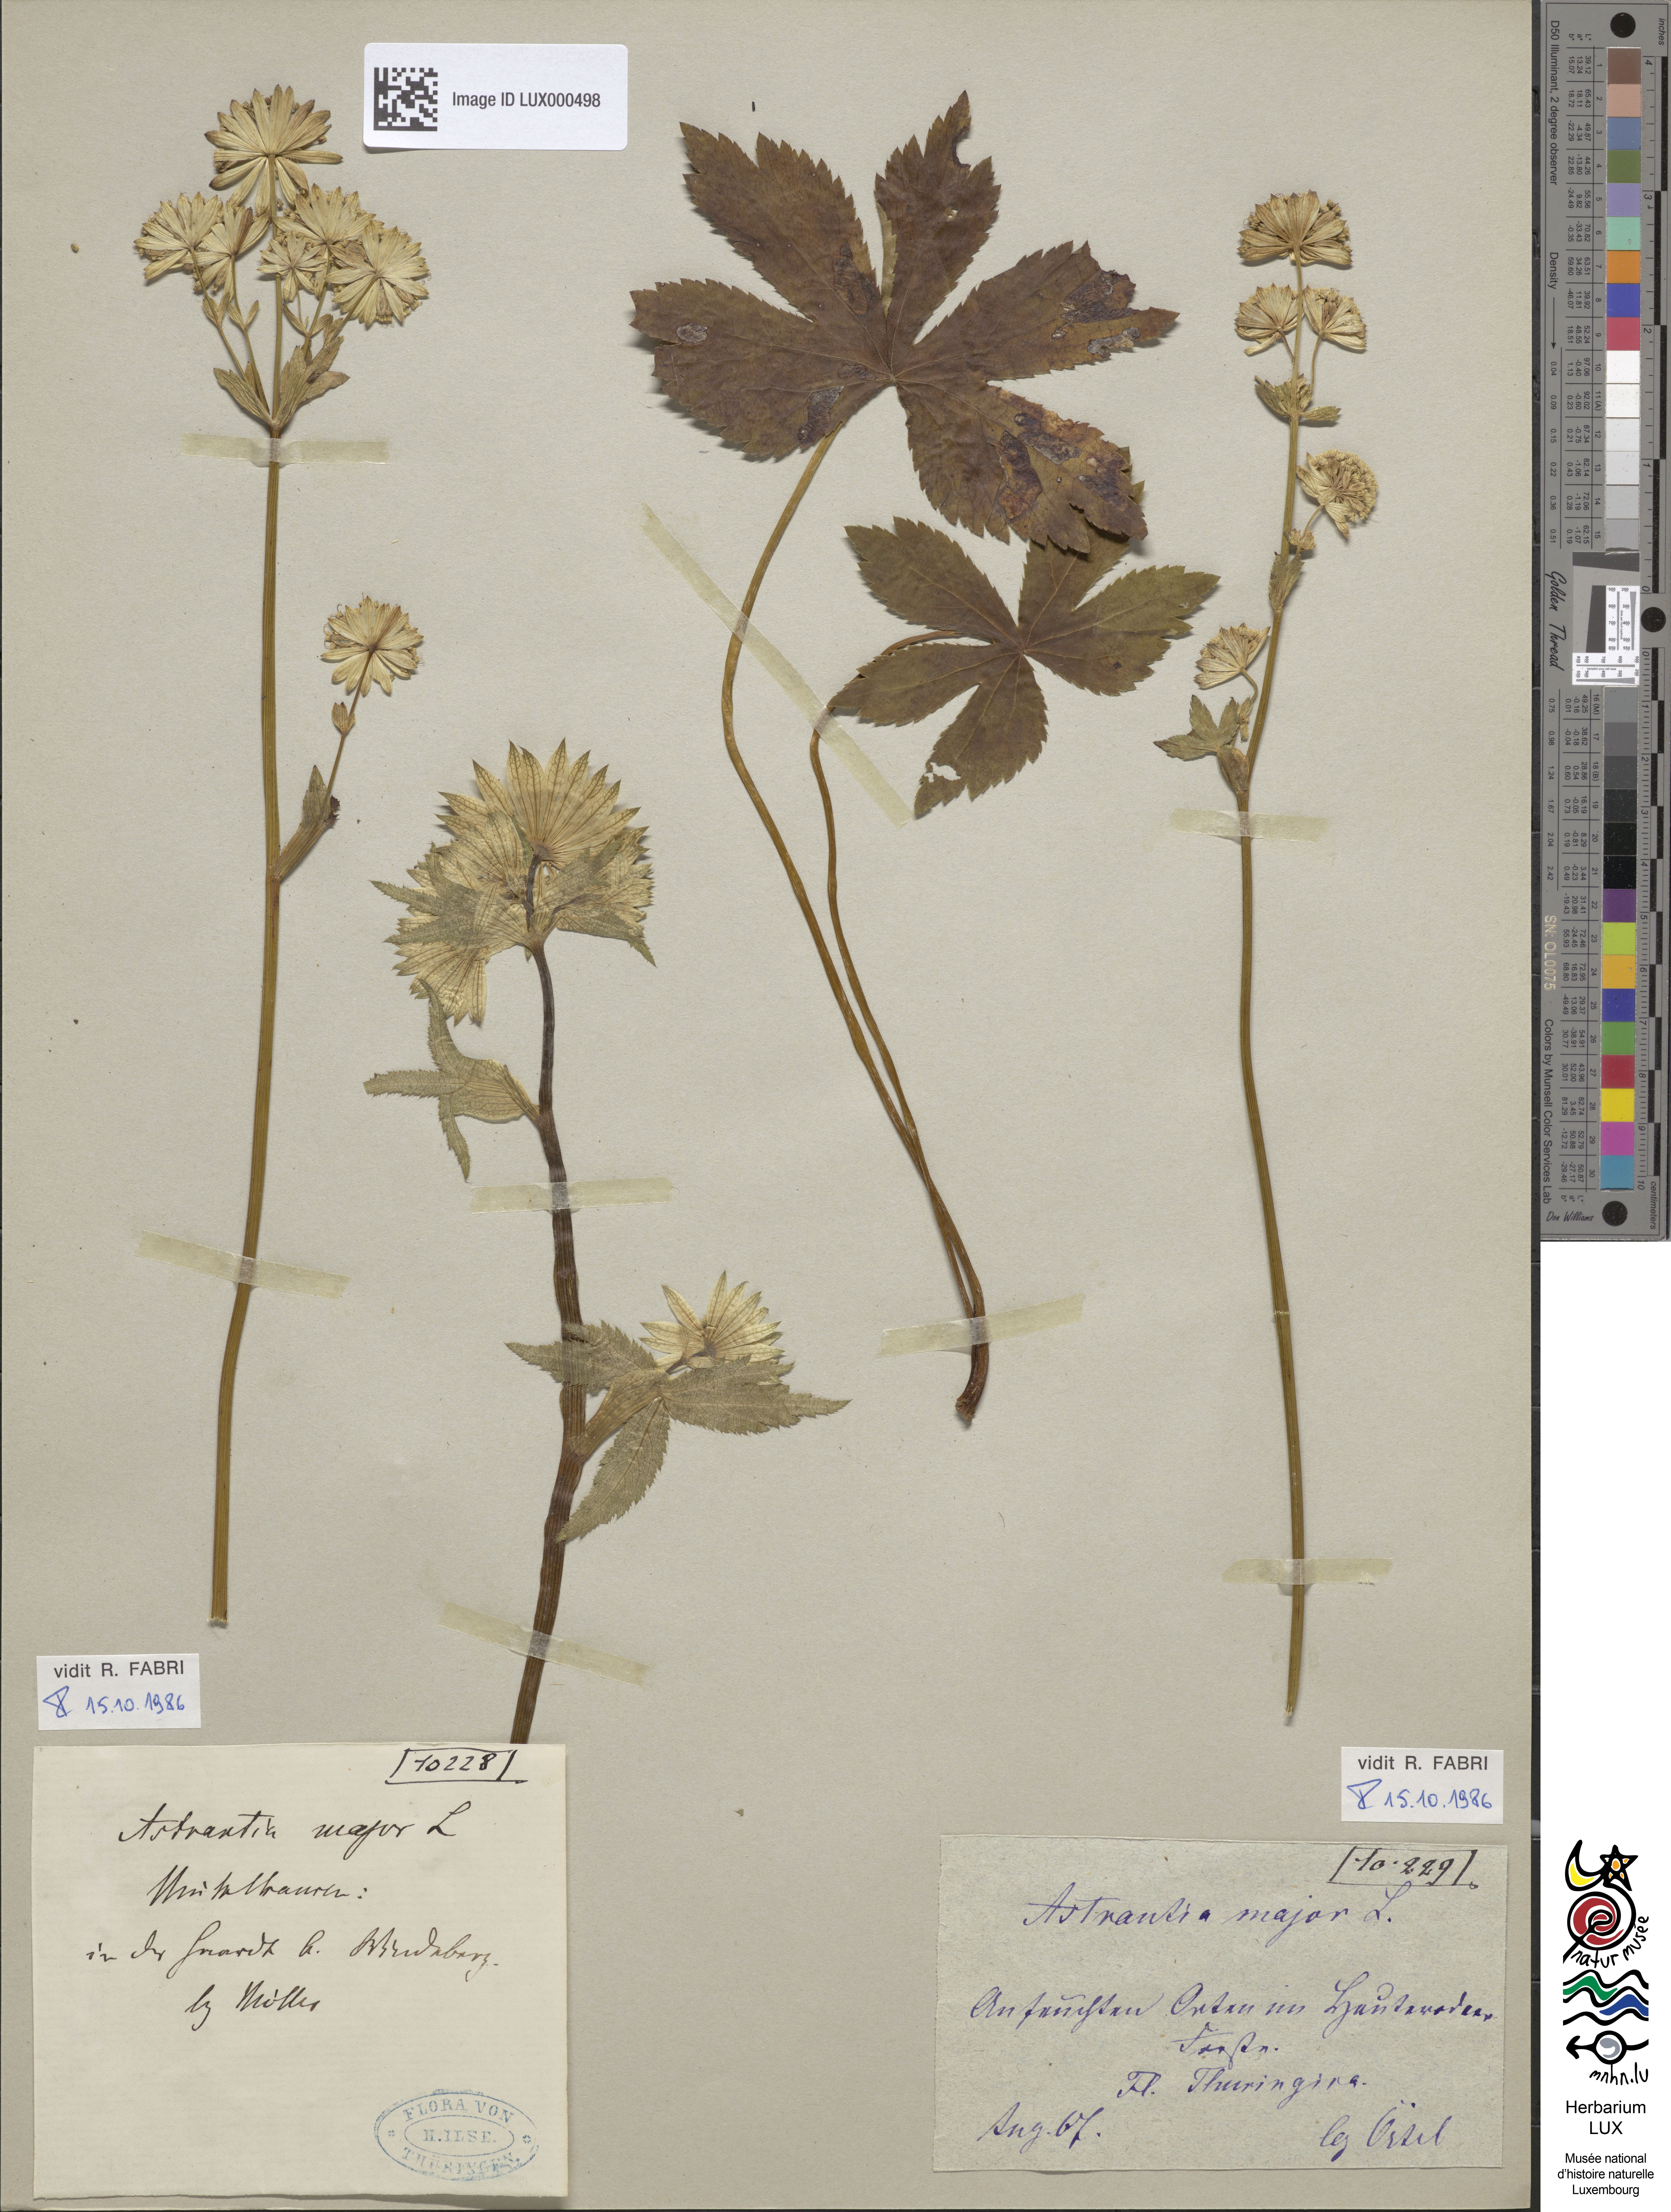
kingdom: Plantae
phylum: Tracheophyta
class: Magnoliopsida
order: Apiales
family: Apiaceae
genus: Astrantia
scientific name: Astrantia major
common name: Greater masterwort
